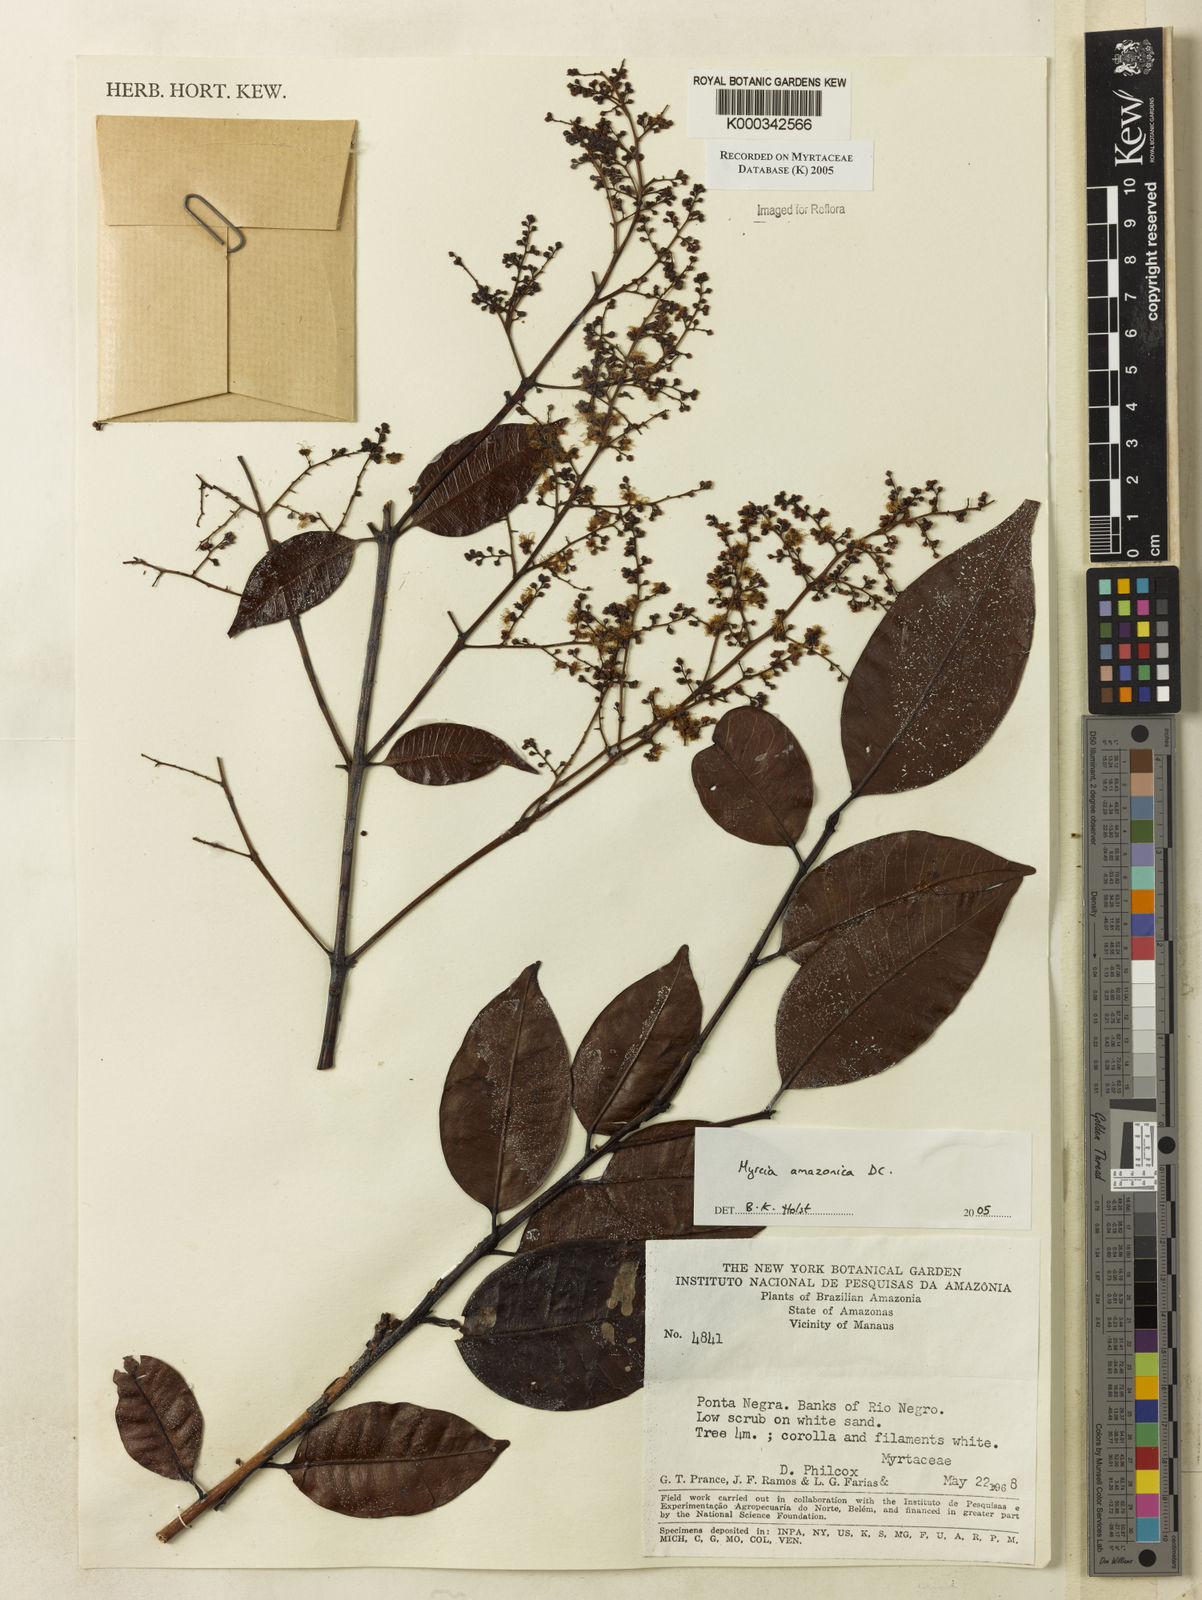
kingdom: Plantae
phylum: Tracheophyta
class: Magnoliopsida
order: Myrtales
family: Myrtaceae
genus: Myrcia
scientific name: Myrcia amazonica
